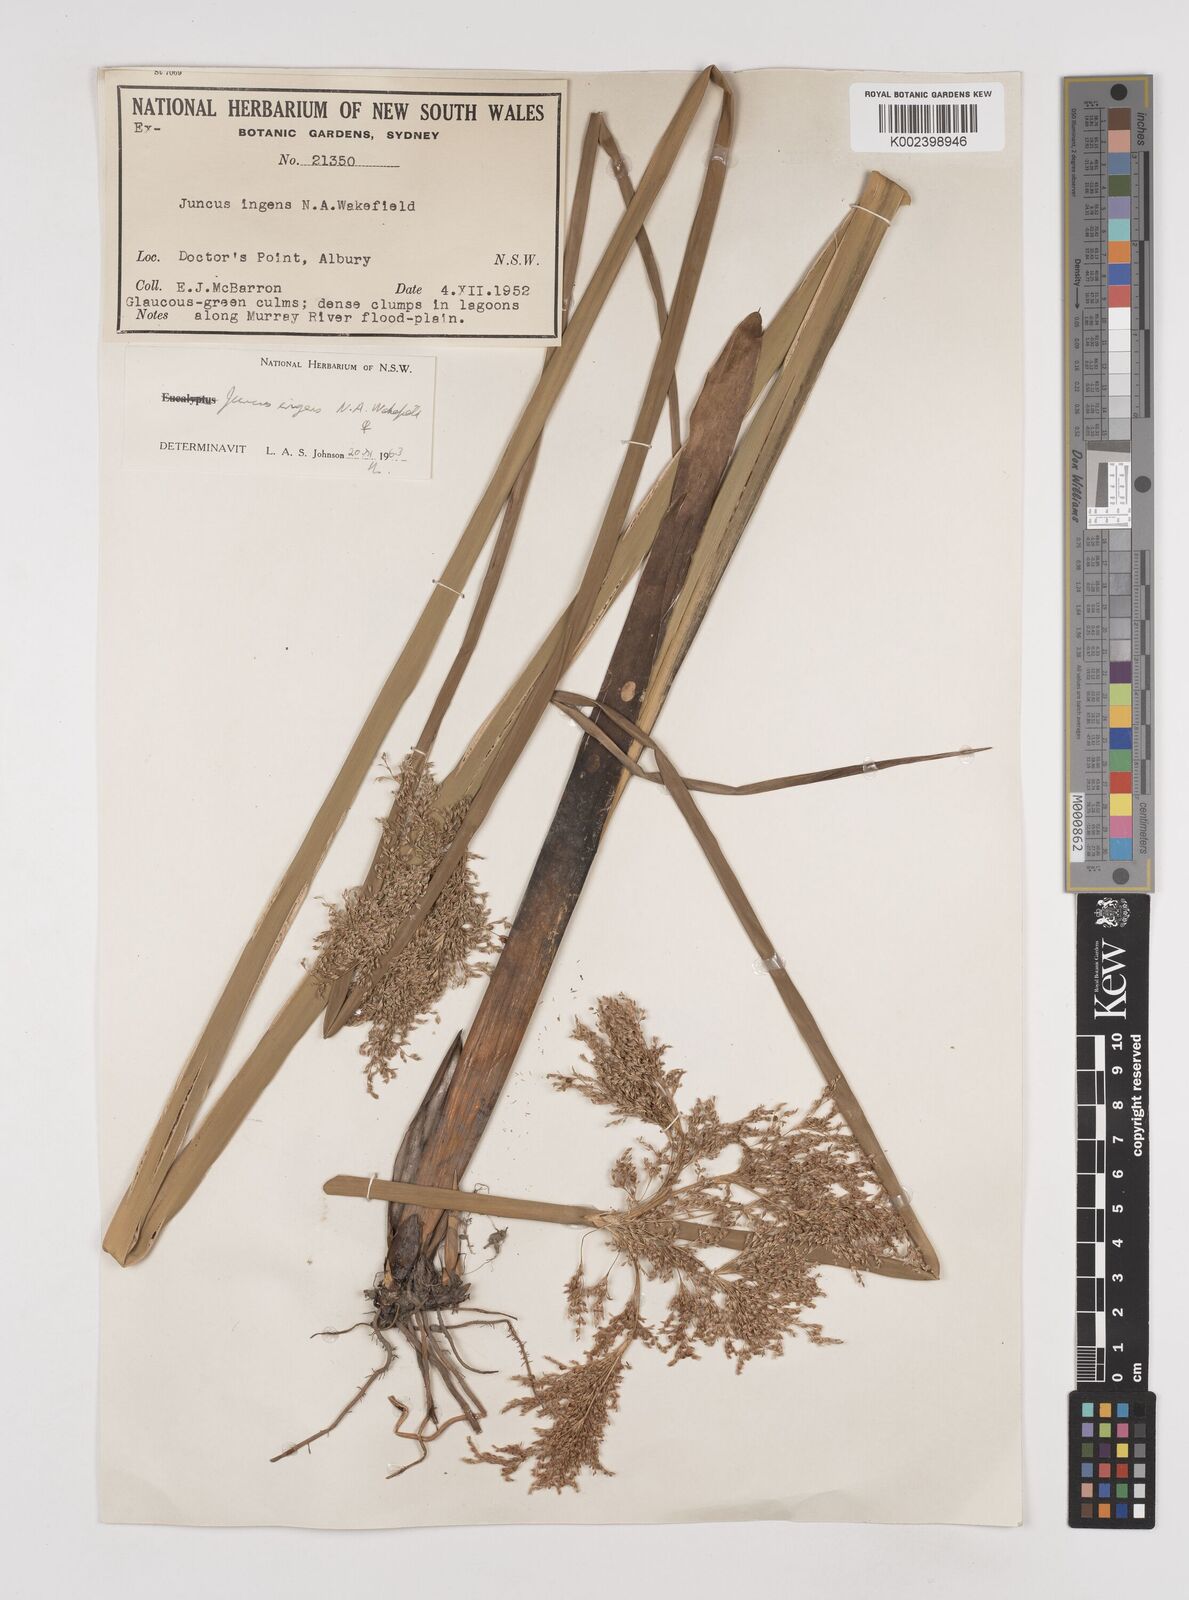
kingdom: Plantae
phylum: Tracheophyta
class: Liliopsida
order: Poales
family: Juncaceae
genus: Juncus
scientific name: Juncus
